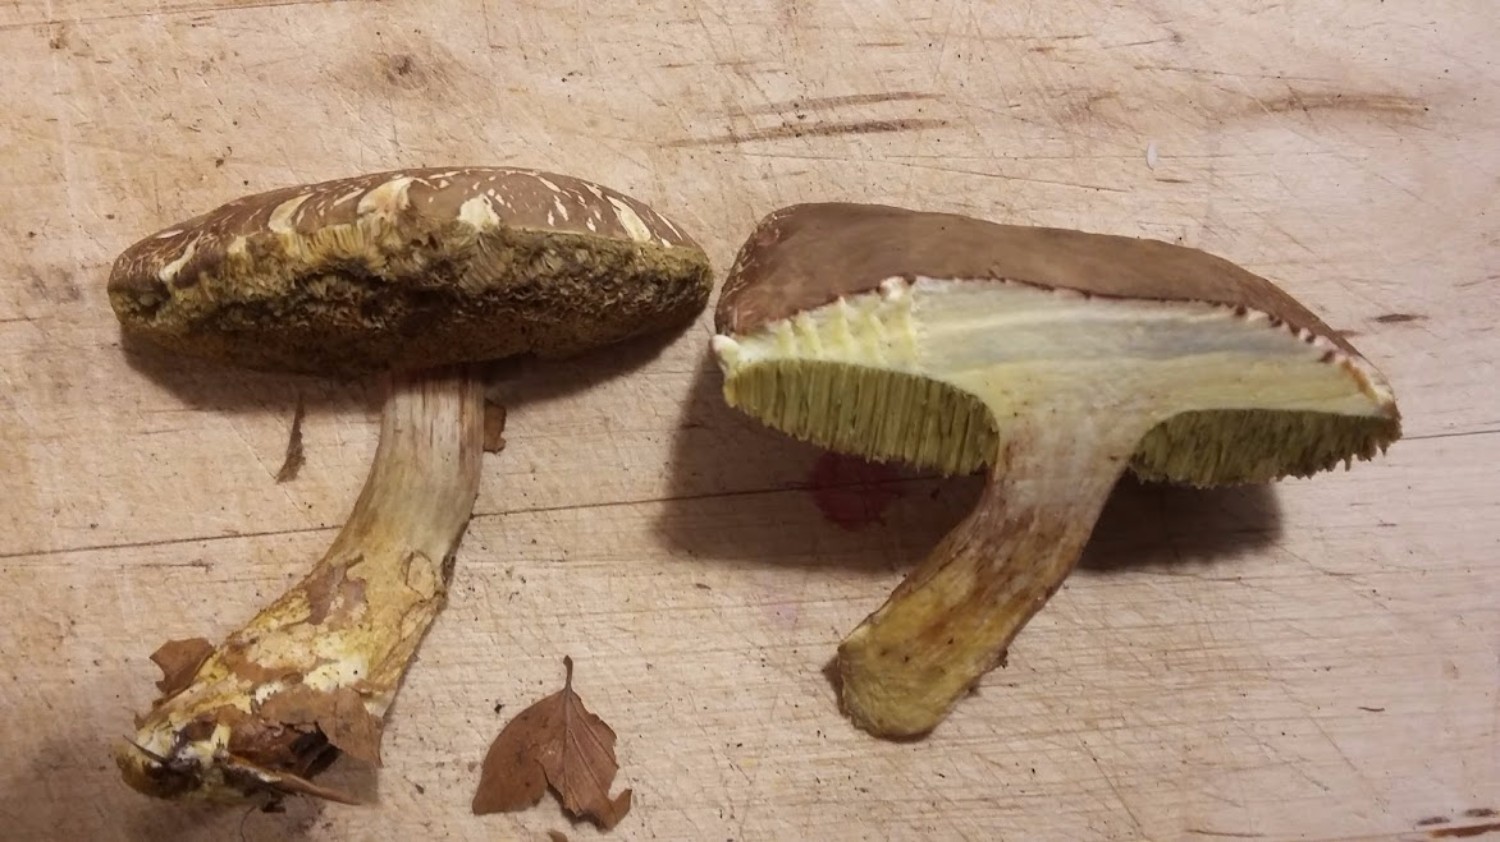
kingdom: Fungi
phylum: Basidiomycota
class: Agaricomycetes
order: Boletales
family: Boletaceae
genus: Xerocomellus
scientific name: Xerocomellus porosporus
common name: hvidsprukken rørhat
